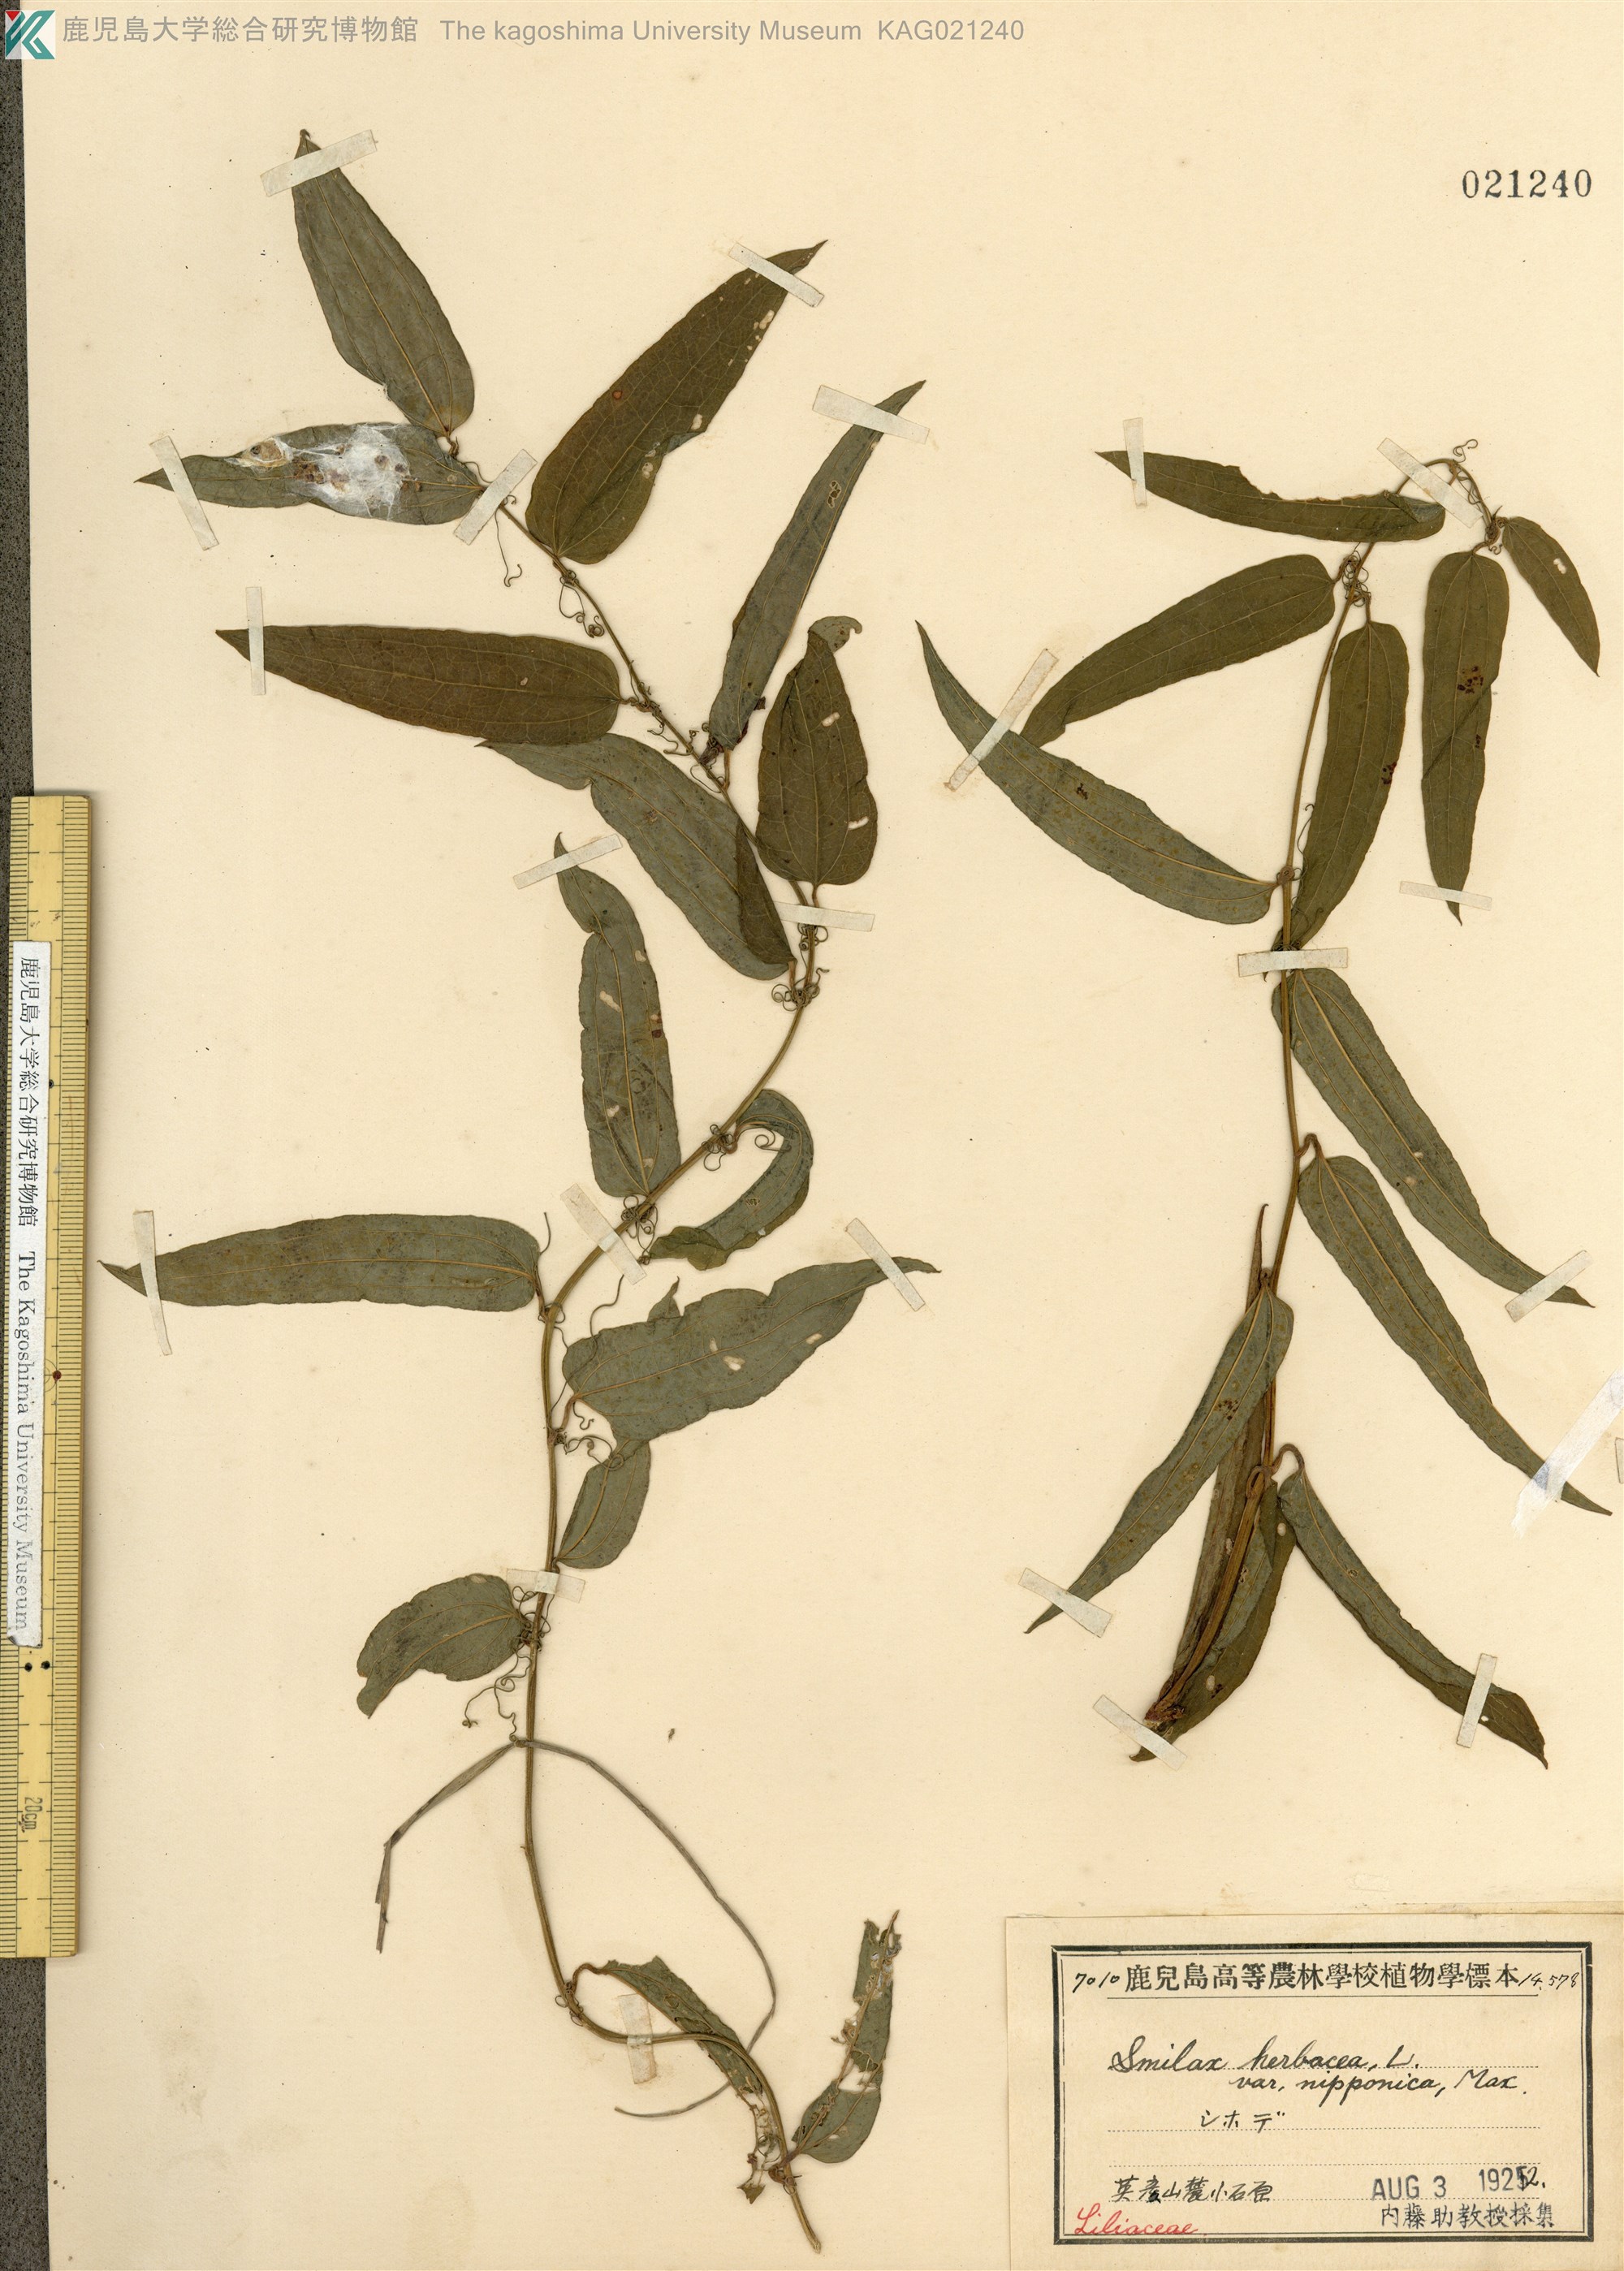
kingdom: Plantae
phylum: Tracheophyta
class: Liliopsida
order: Liliales
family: Smilacaceae
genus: Smilax
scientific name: Smilax riparia
